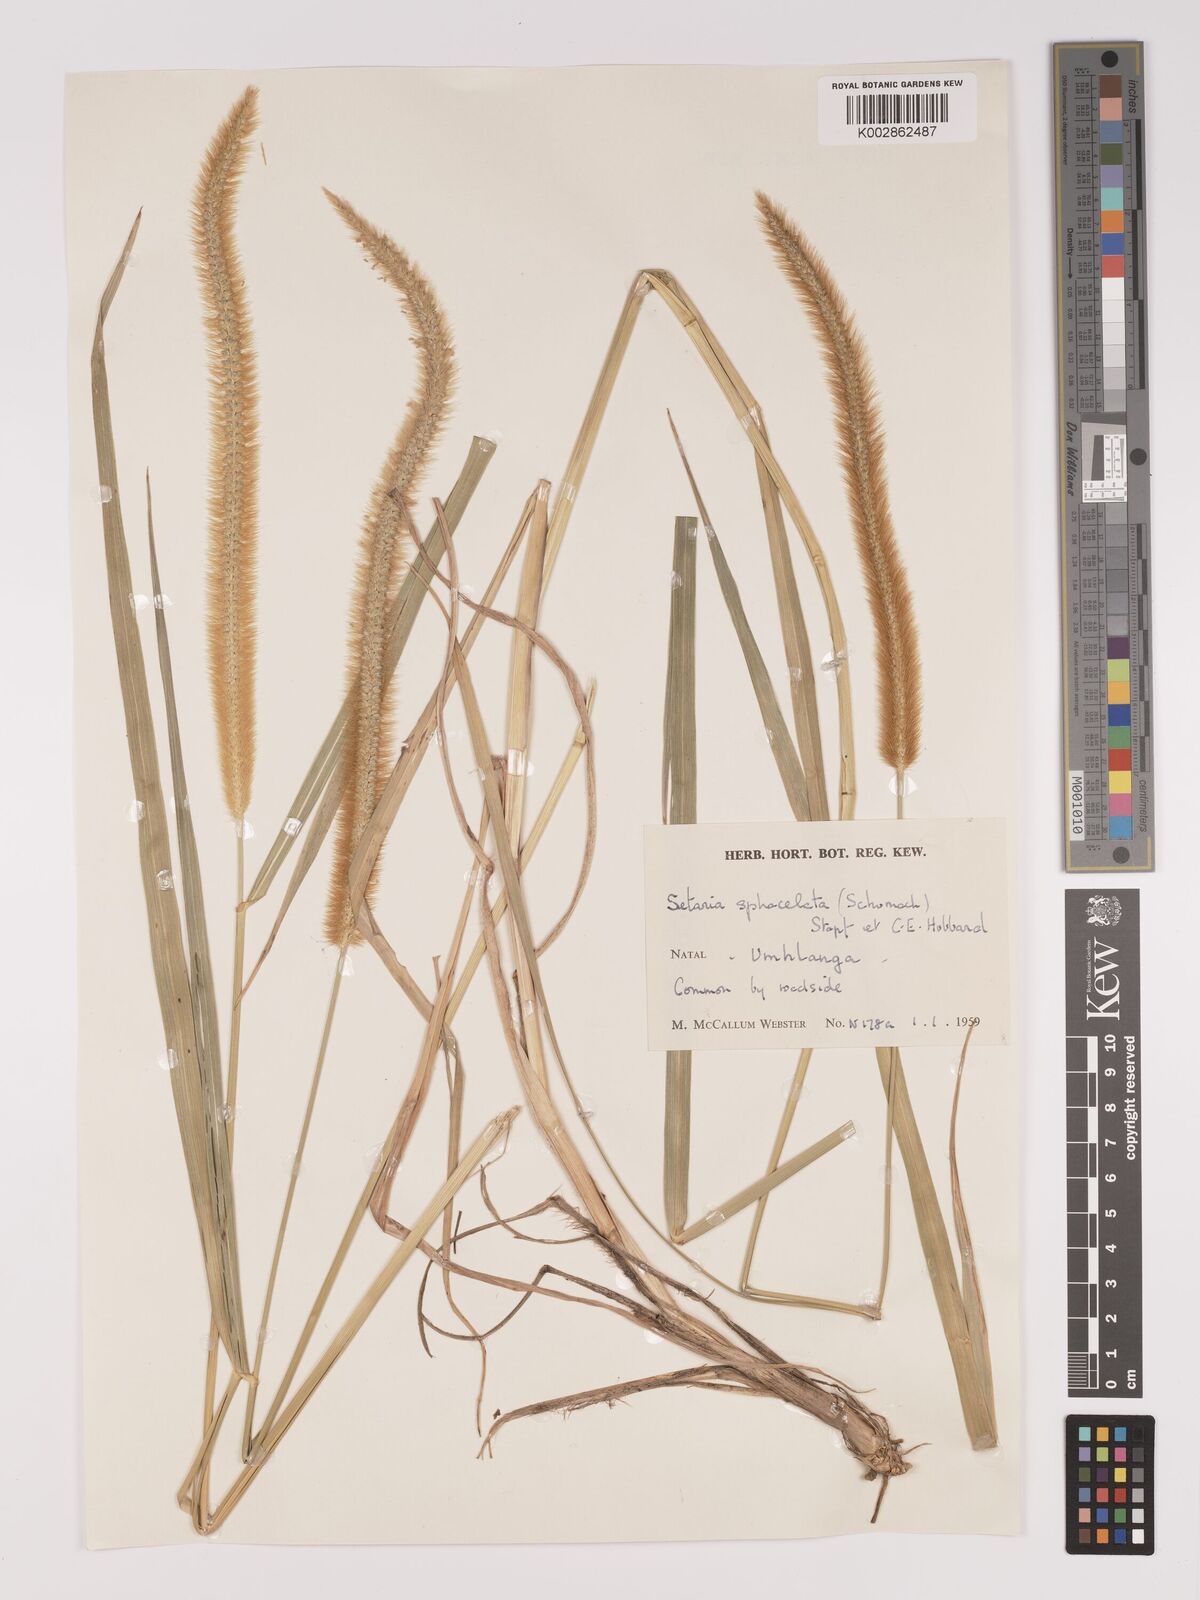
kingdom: Plantae
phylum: Tracheophyta
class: Liliopsida
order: Poales
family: Poaceae
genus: Setaria
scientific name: Setaria sphacelata
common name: African bristlegrass
